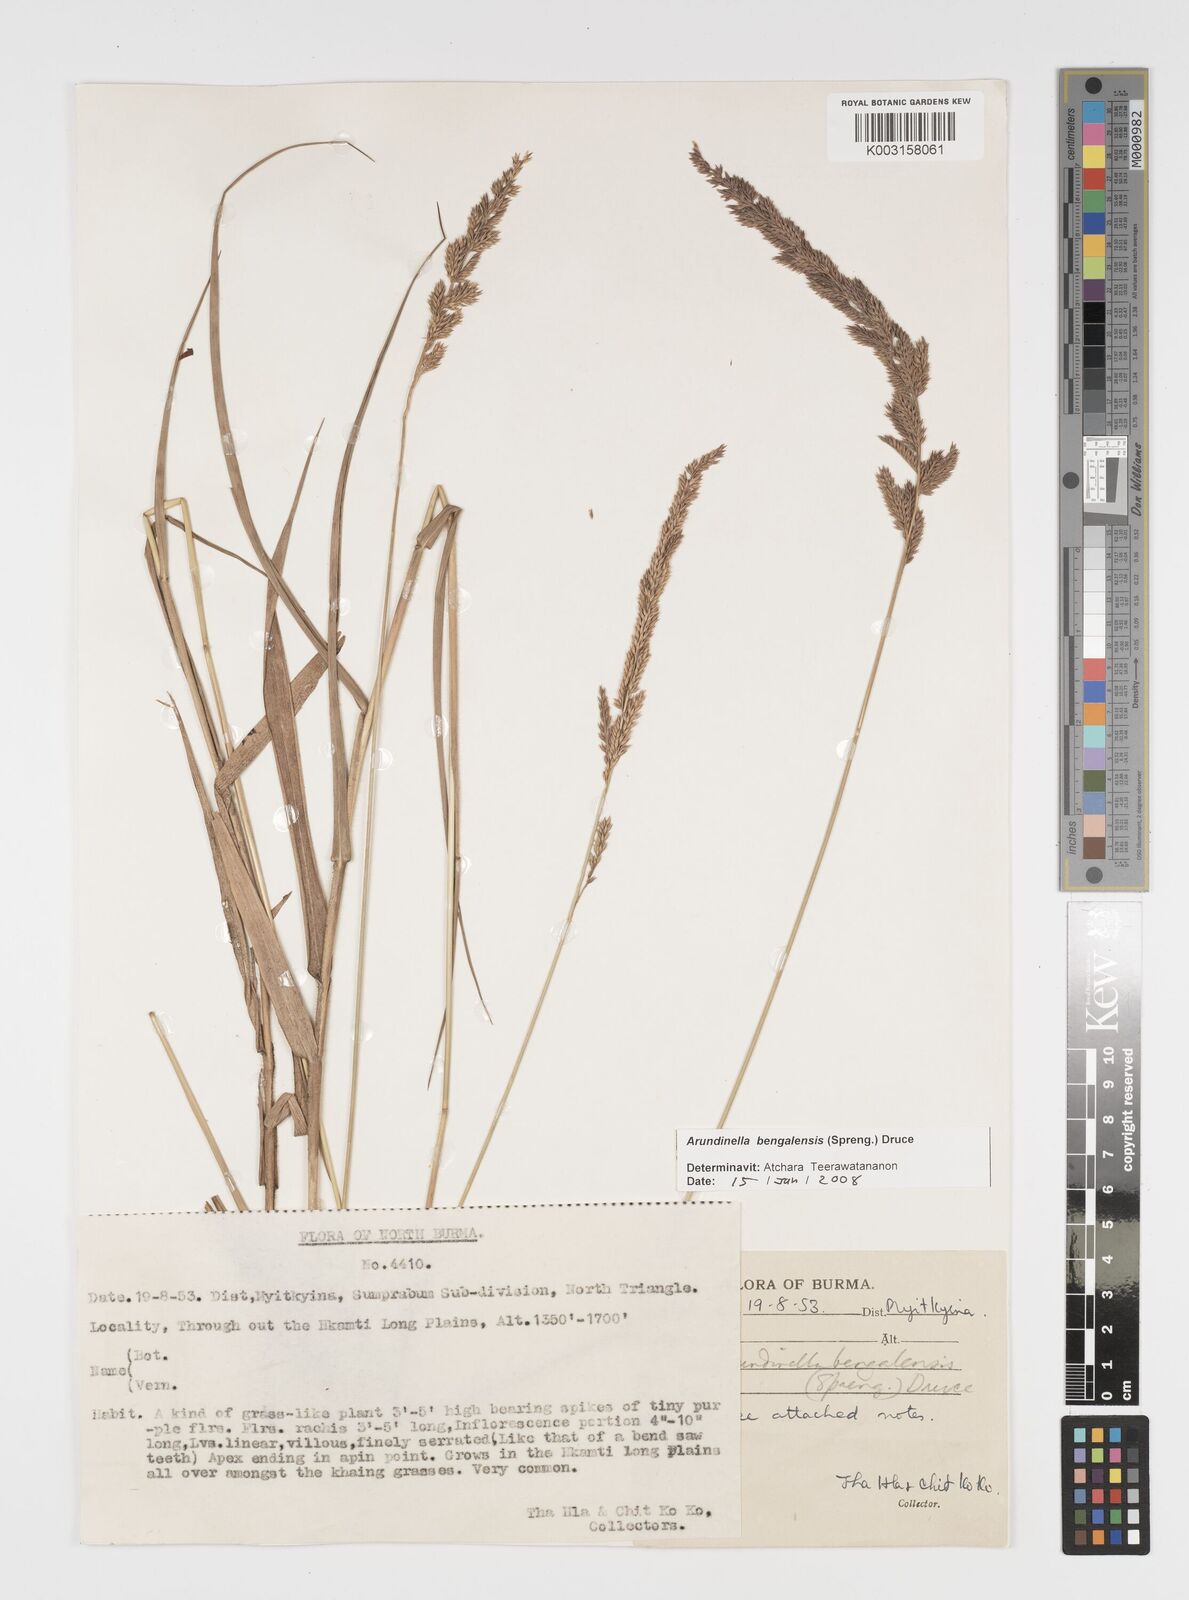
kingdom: Plantae
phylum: Tracheophyta
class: Liliopsida
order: Poales
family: Poaceae
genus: Arundinella
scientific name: Arundinella bengalensis
